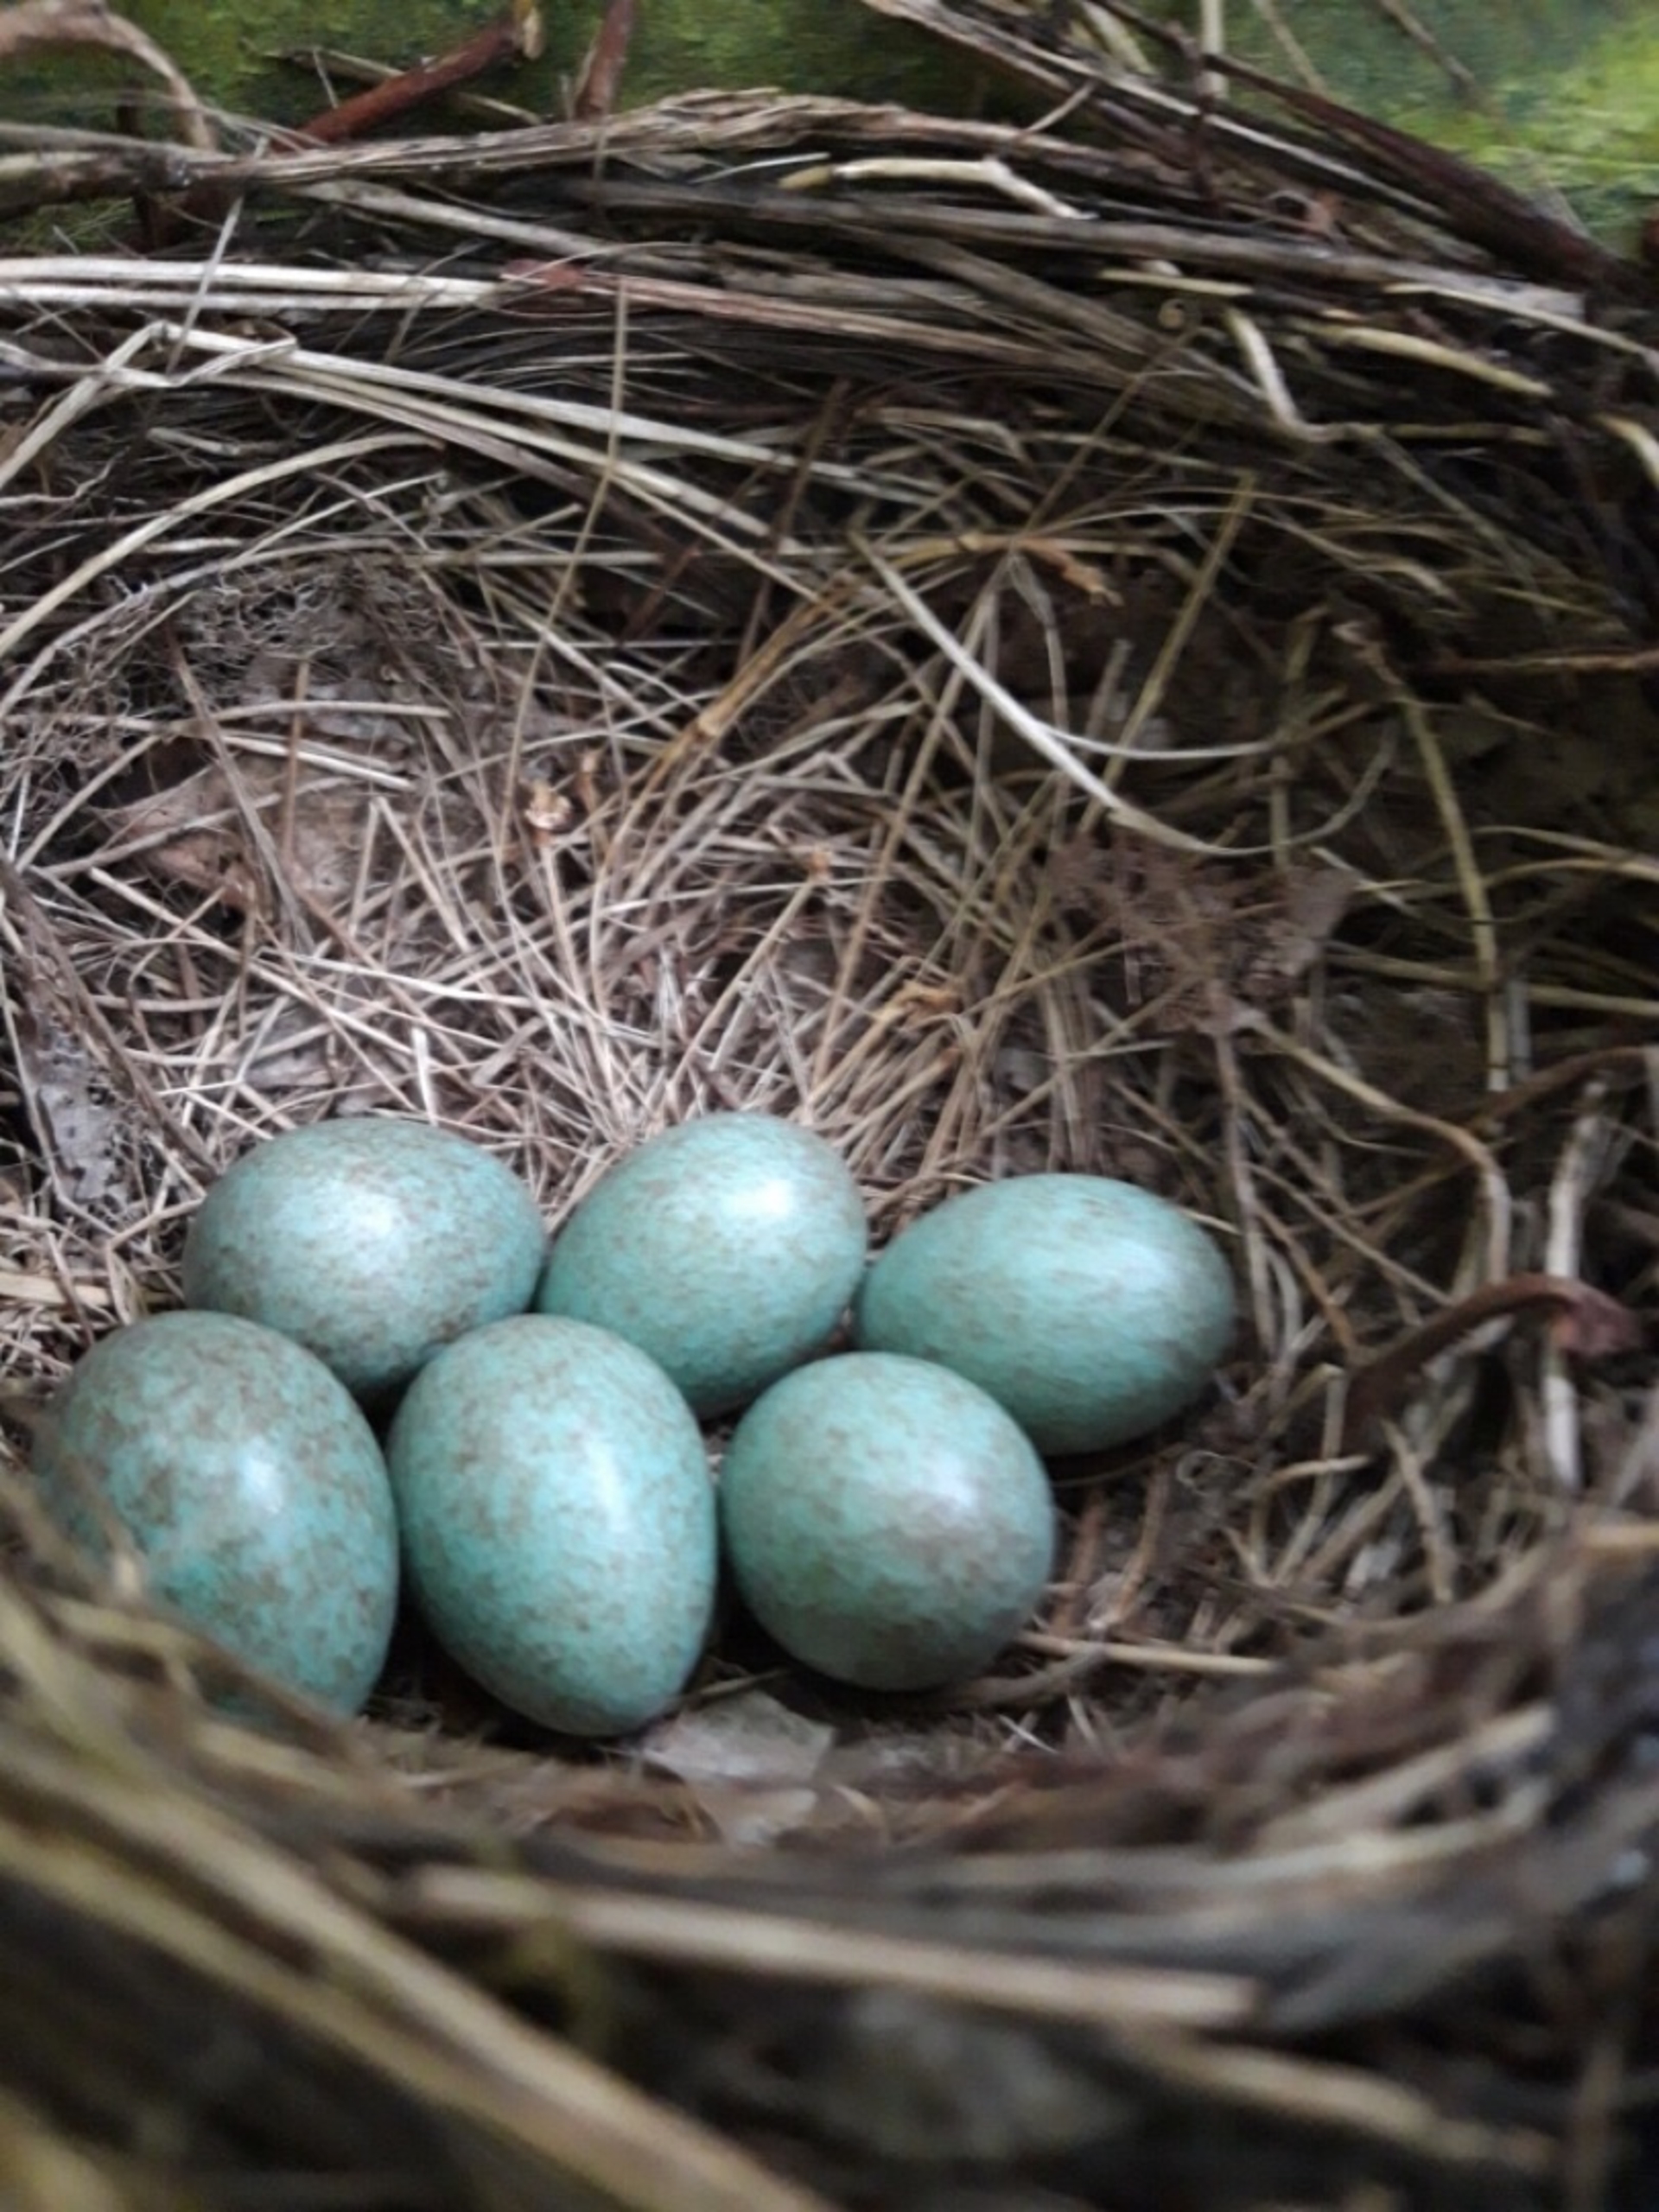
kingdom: Animalia
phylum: Chordata
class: Aves
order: Passeriformes
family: Turdidae
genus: Turdus
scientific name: Turdus merula
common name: Solsort
